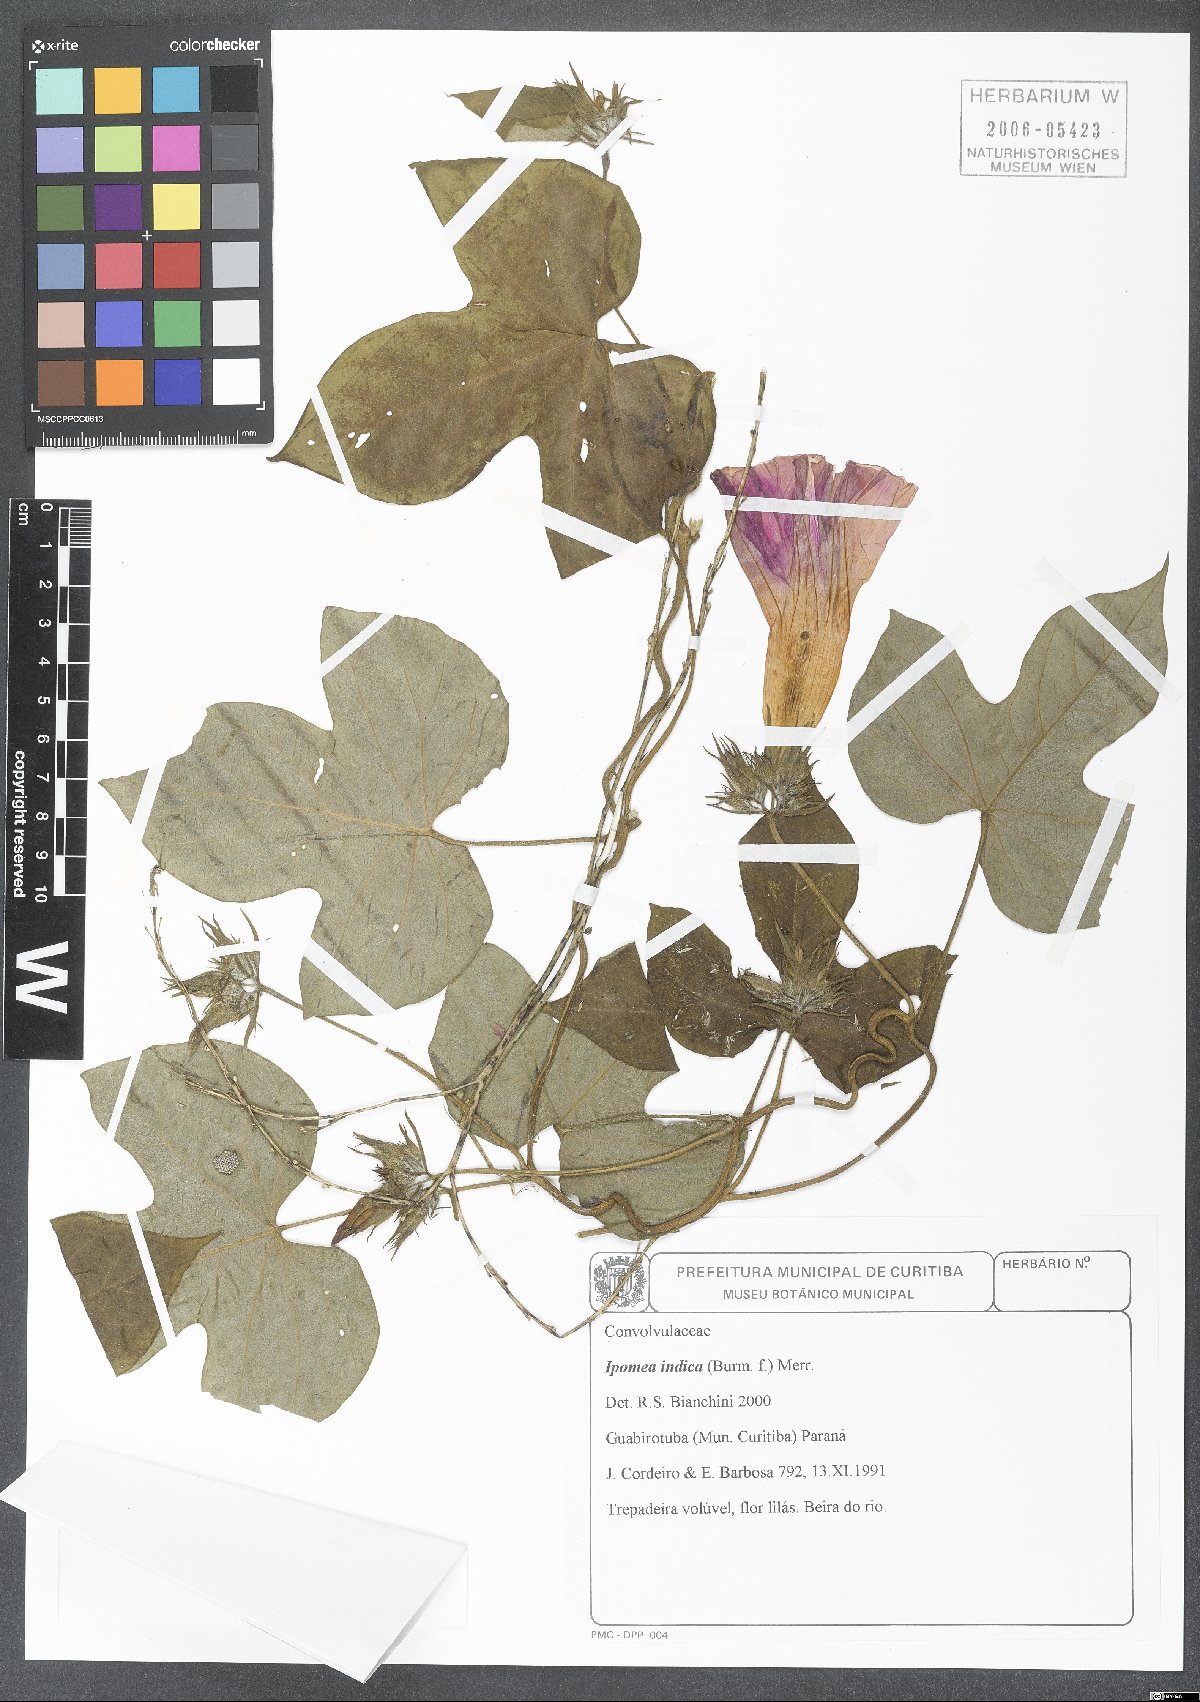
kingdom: Plantae
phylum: Tracheophyta
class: Magnoliopsida
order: Solanales
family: Convolvulaceae
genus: Ipomoea
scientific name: Ipomoea indica
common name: Blue dawnflower
